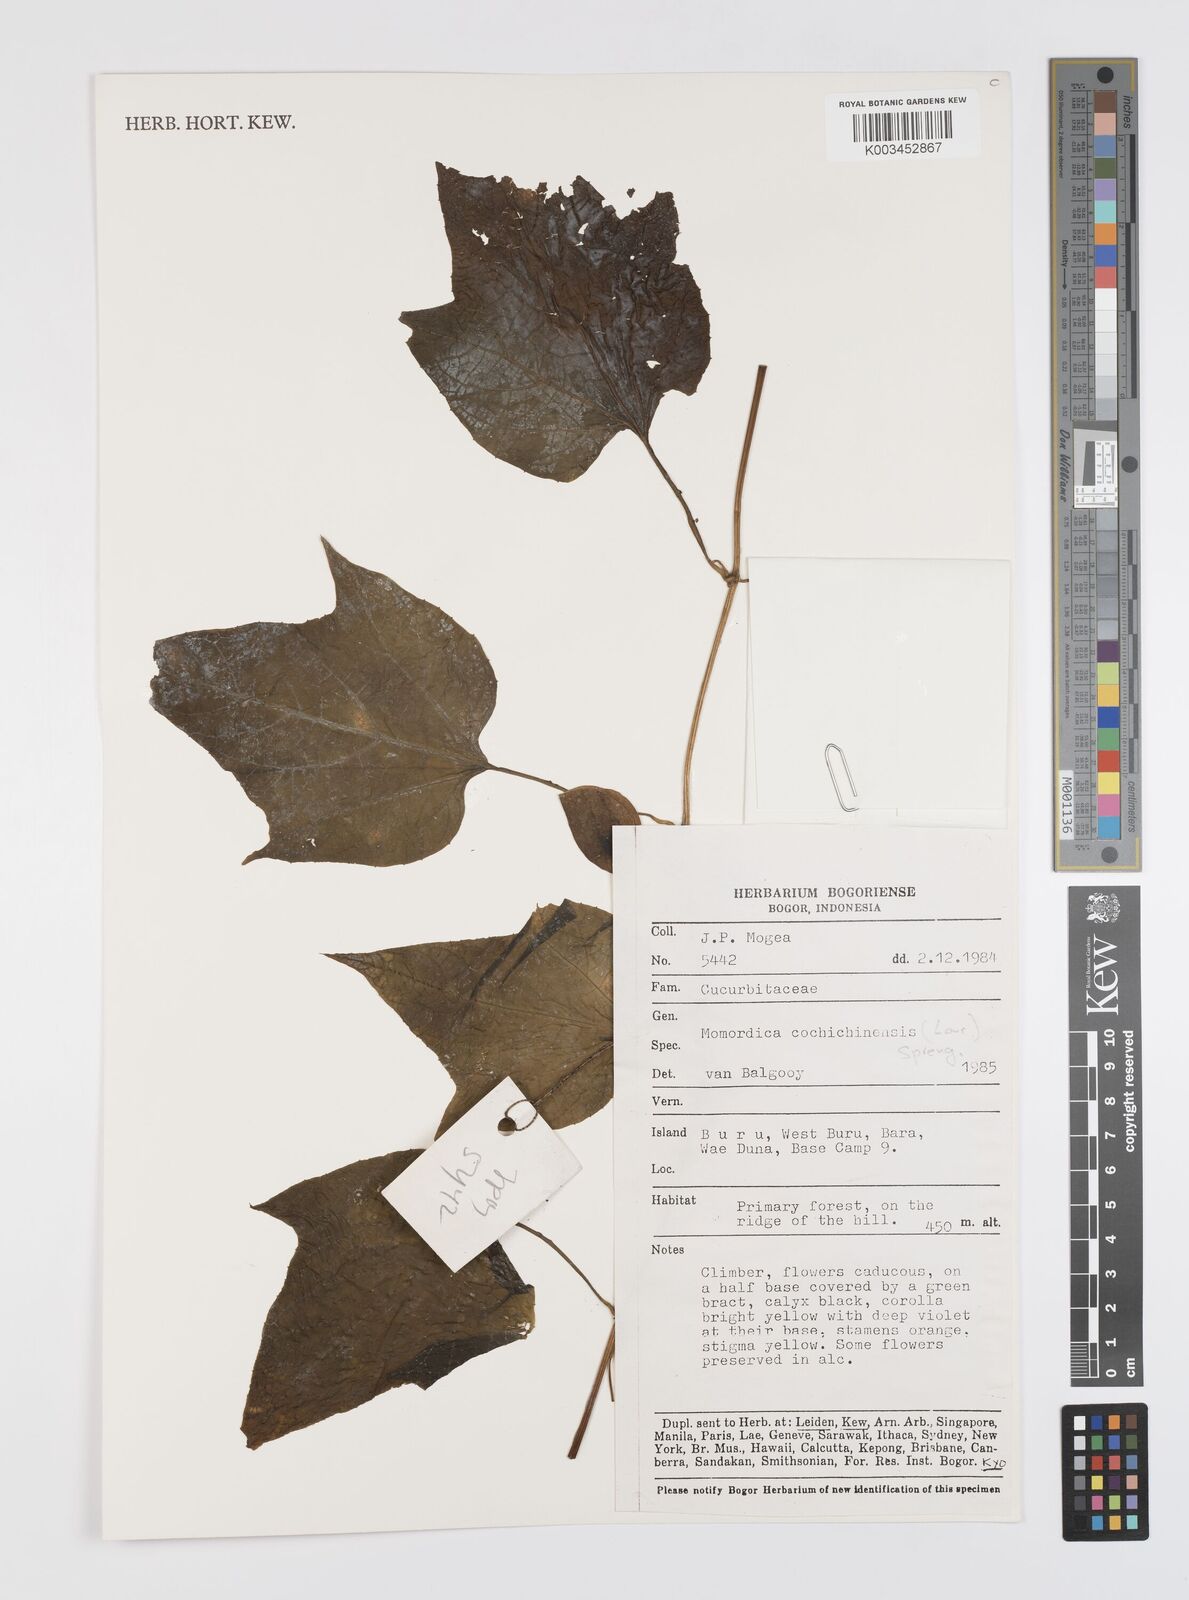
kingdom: Plantae
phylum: Tracheophyta
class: Magnoliopsida
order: Cucurbitales
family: Cucurbitaceae
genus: Momordica
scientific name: Momordica cochinchinensis
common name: Chinese bitter-cucumber
